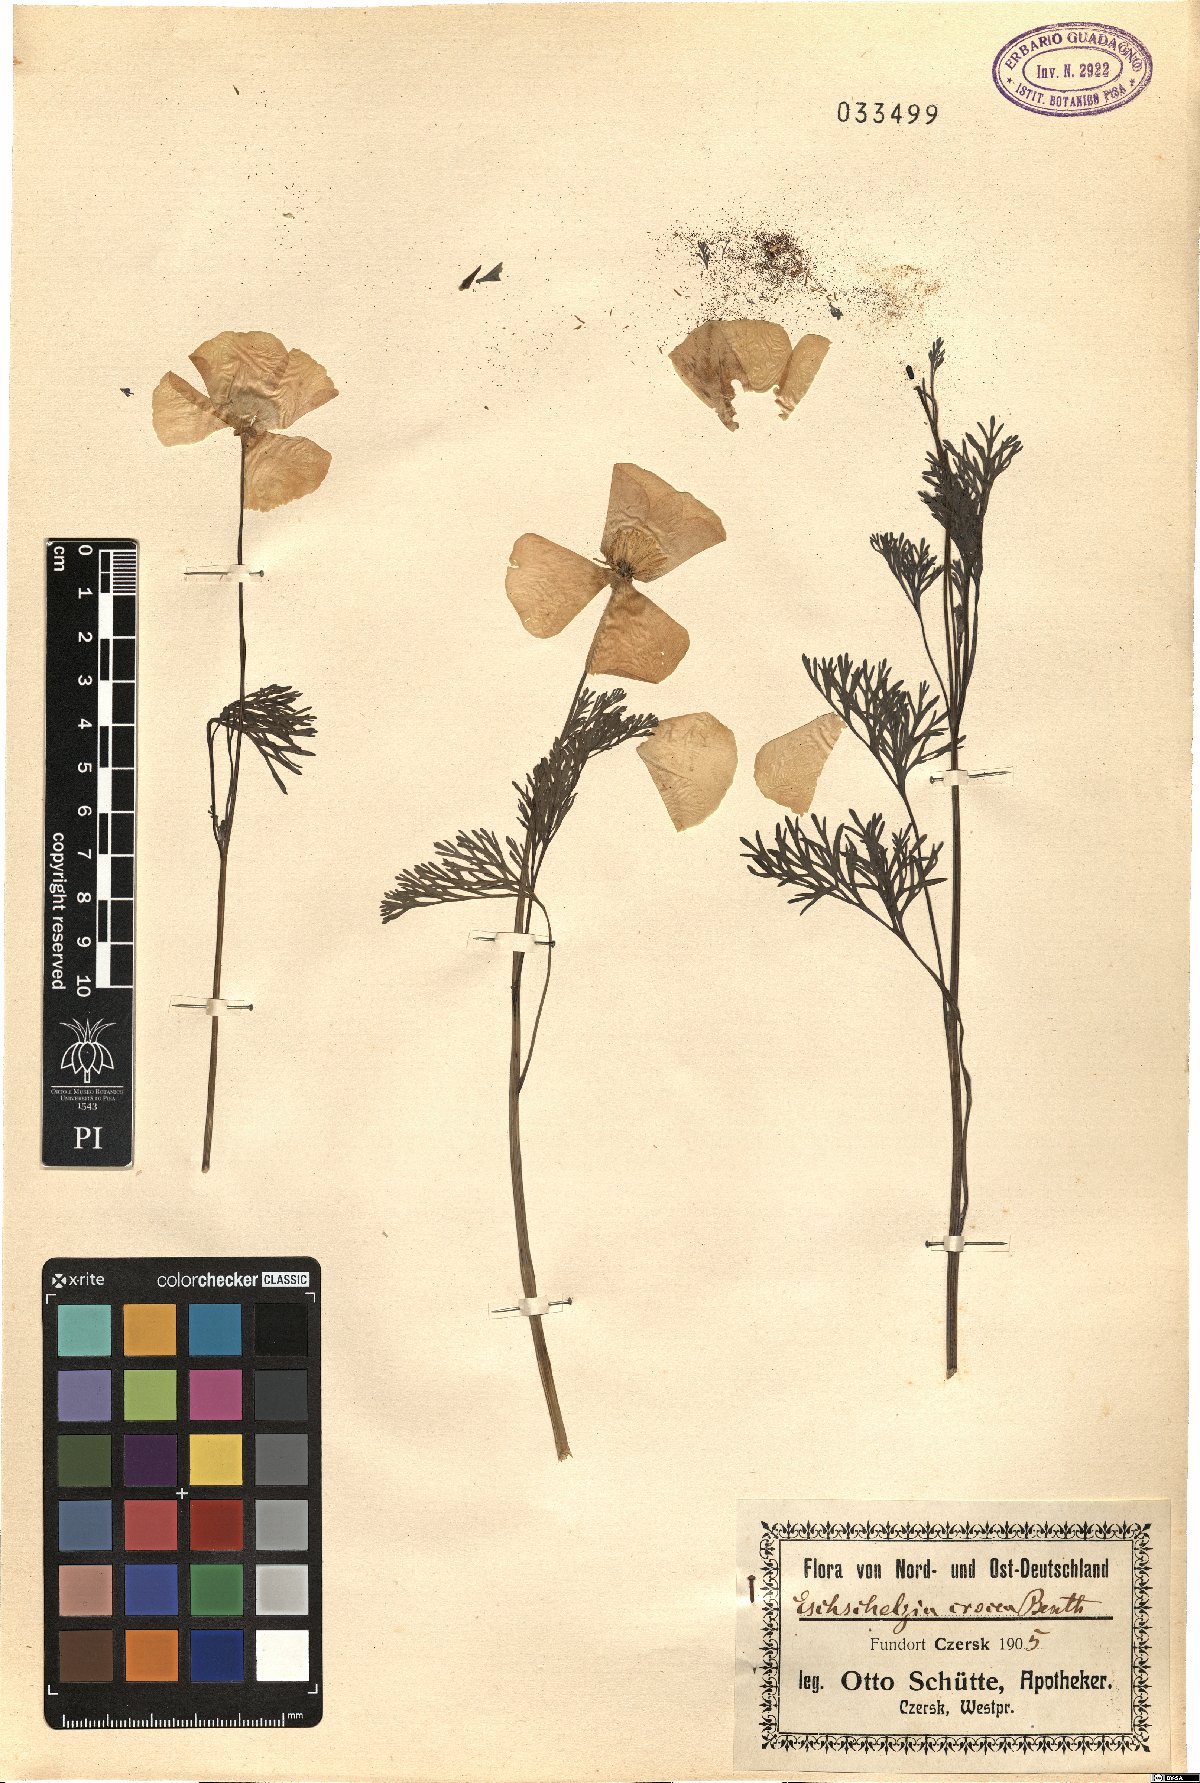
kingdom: Animalia
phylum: Ctenophora
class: Tentaculata
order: Cydippida
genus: Eschscholtzia
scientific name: Eschscholtzia
